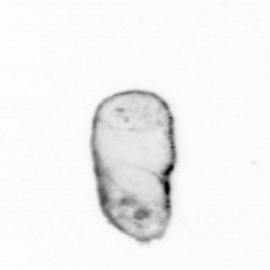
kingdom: Chromista
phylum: Ochrophyta
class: Bacillariophyceae
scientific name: Bacillariophyceae
